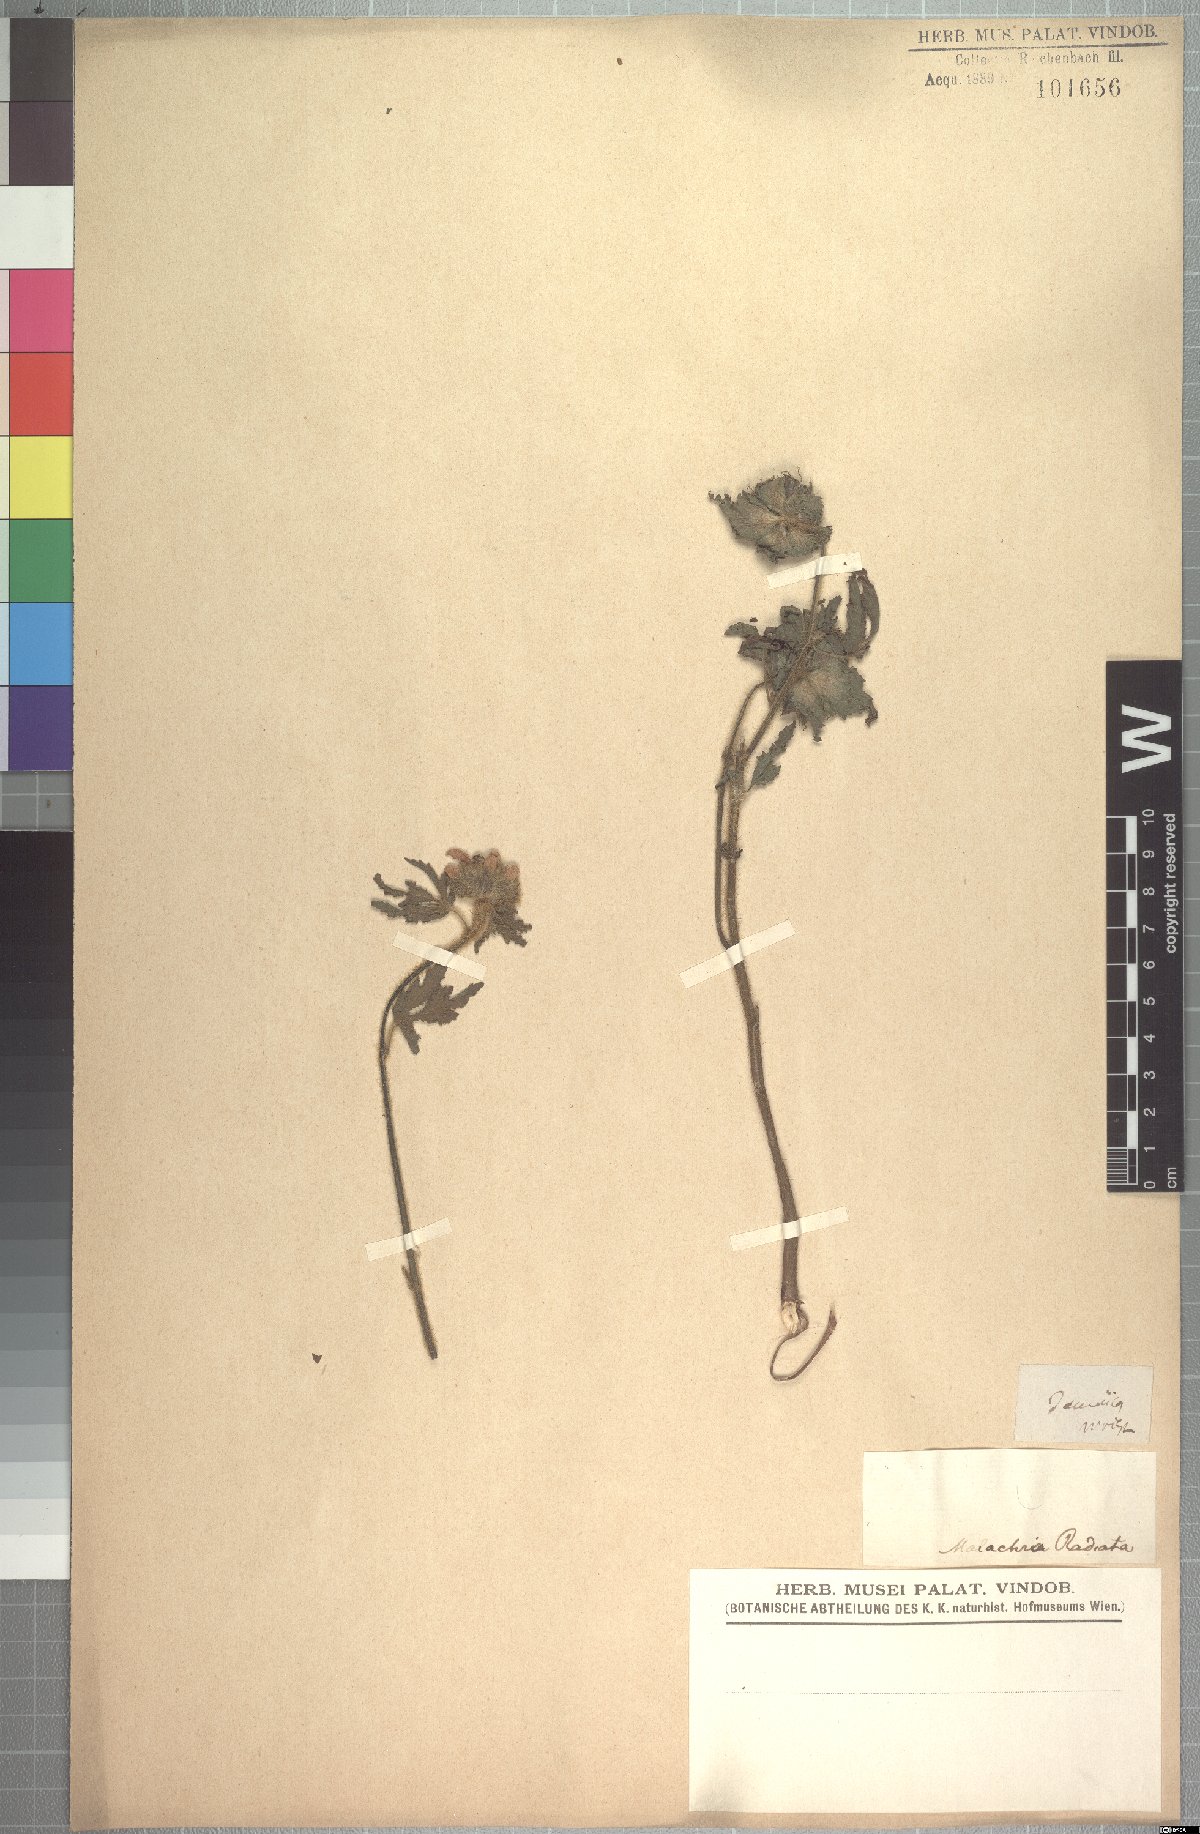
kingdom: Plantae
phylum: Tracheophyta
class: Magnoliopsida
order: Malvales
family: Malvaceae
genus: Malachra
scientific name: Malachra radiata
